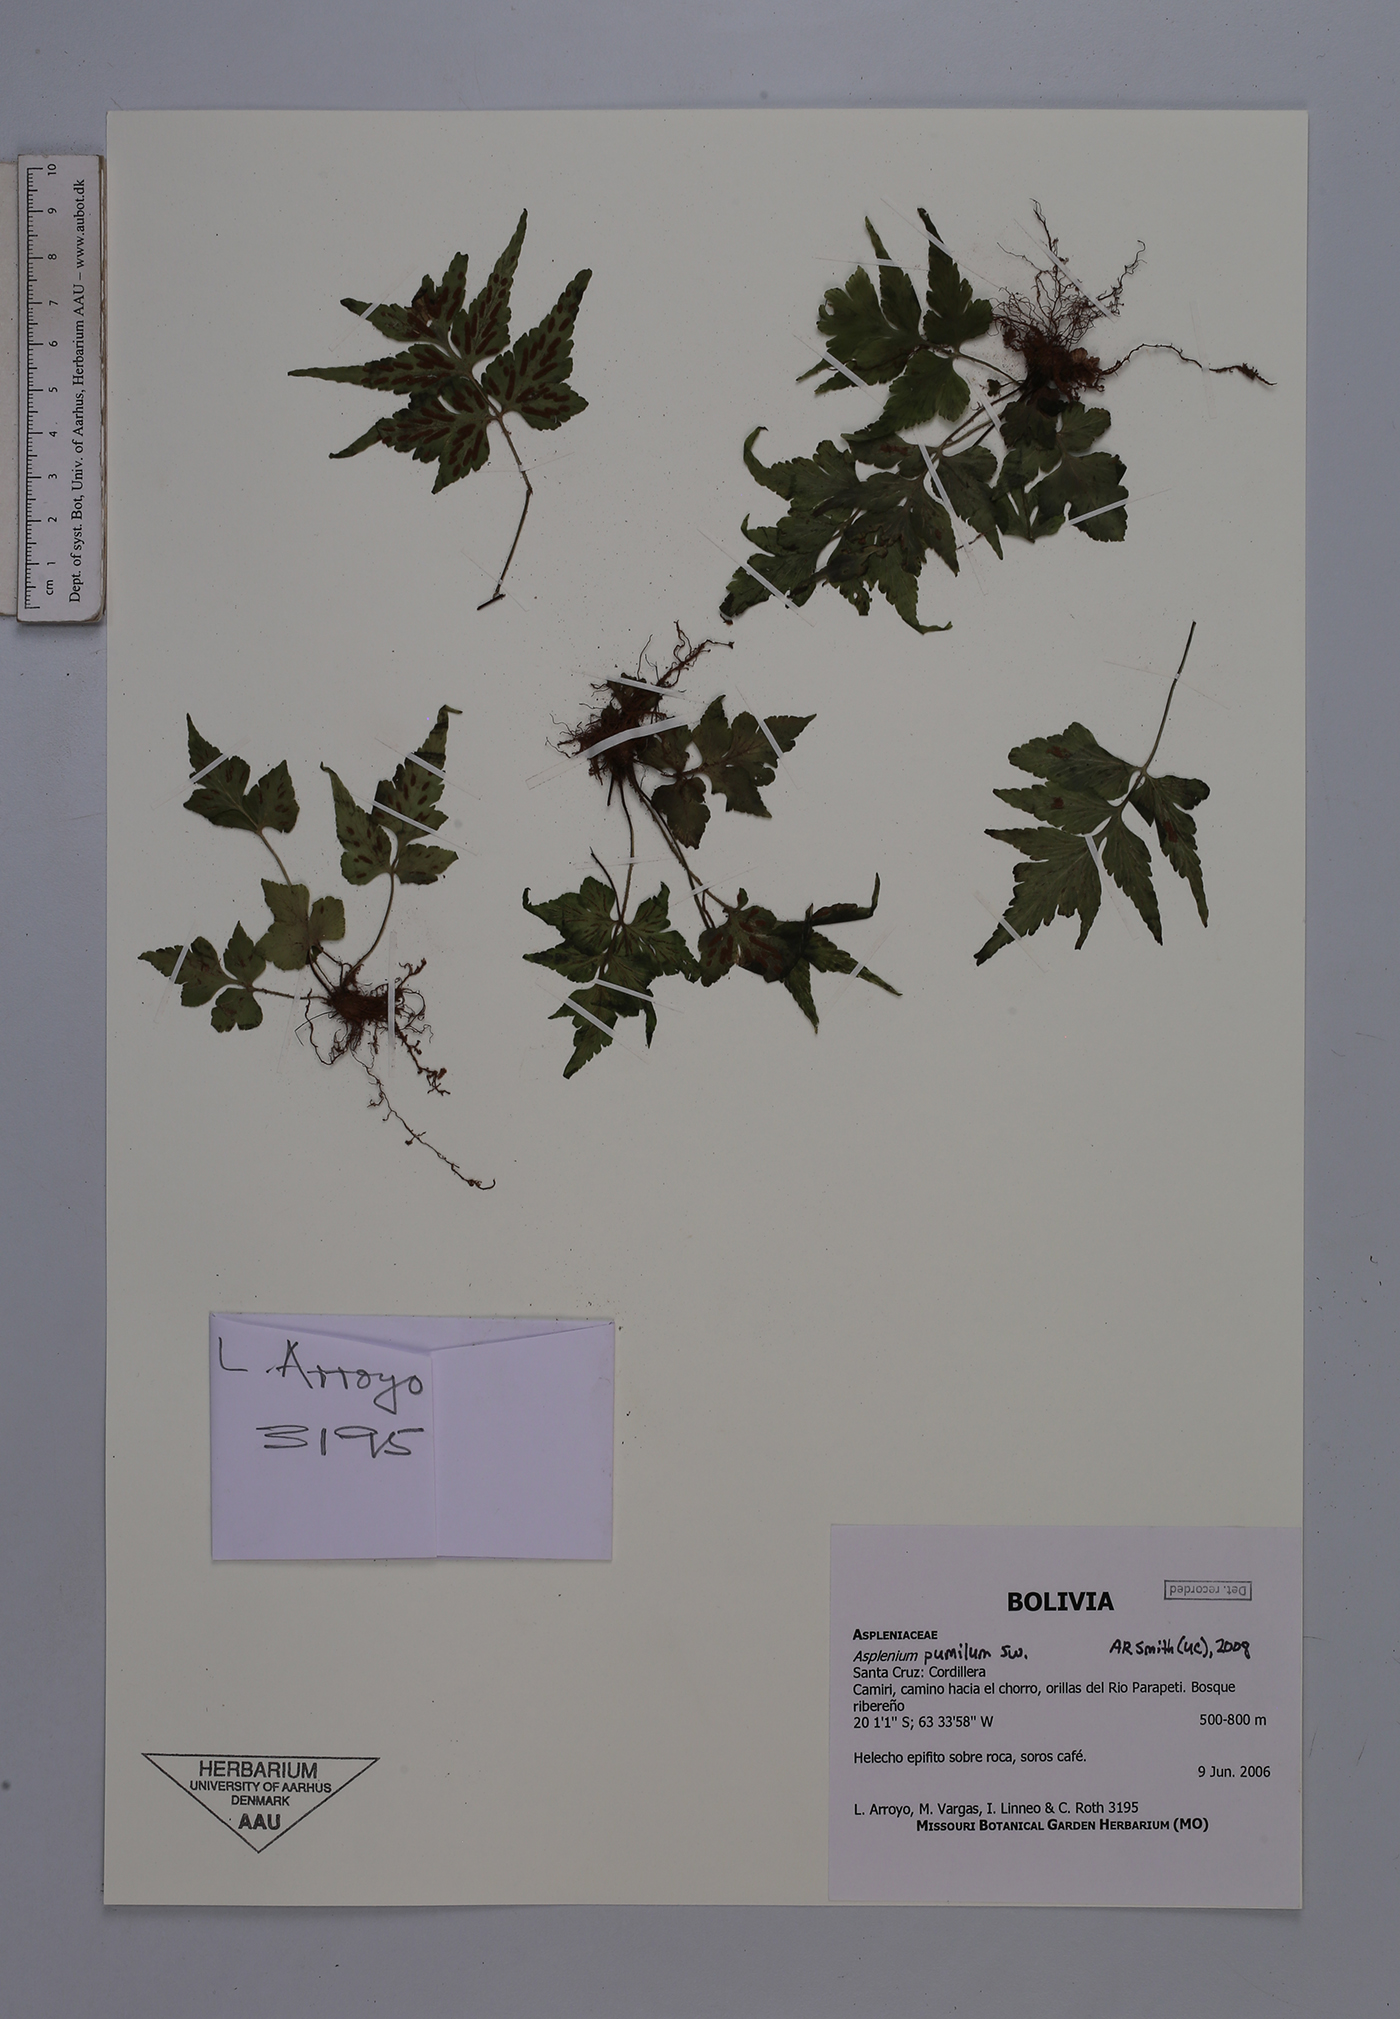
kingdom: Plantae
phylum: Tracheophyta
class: Polypodiopsida
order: Polypodiales
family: Aspleniaceae
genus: Asplenium
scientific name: Asplenium pumilum
